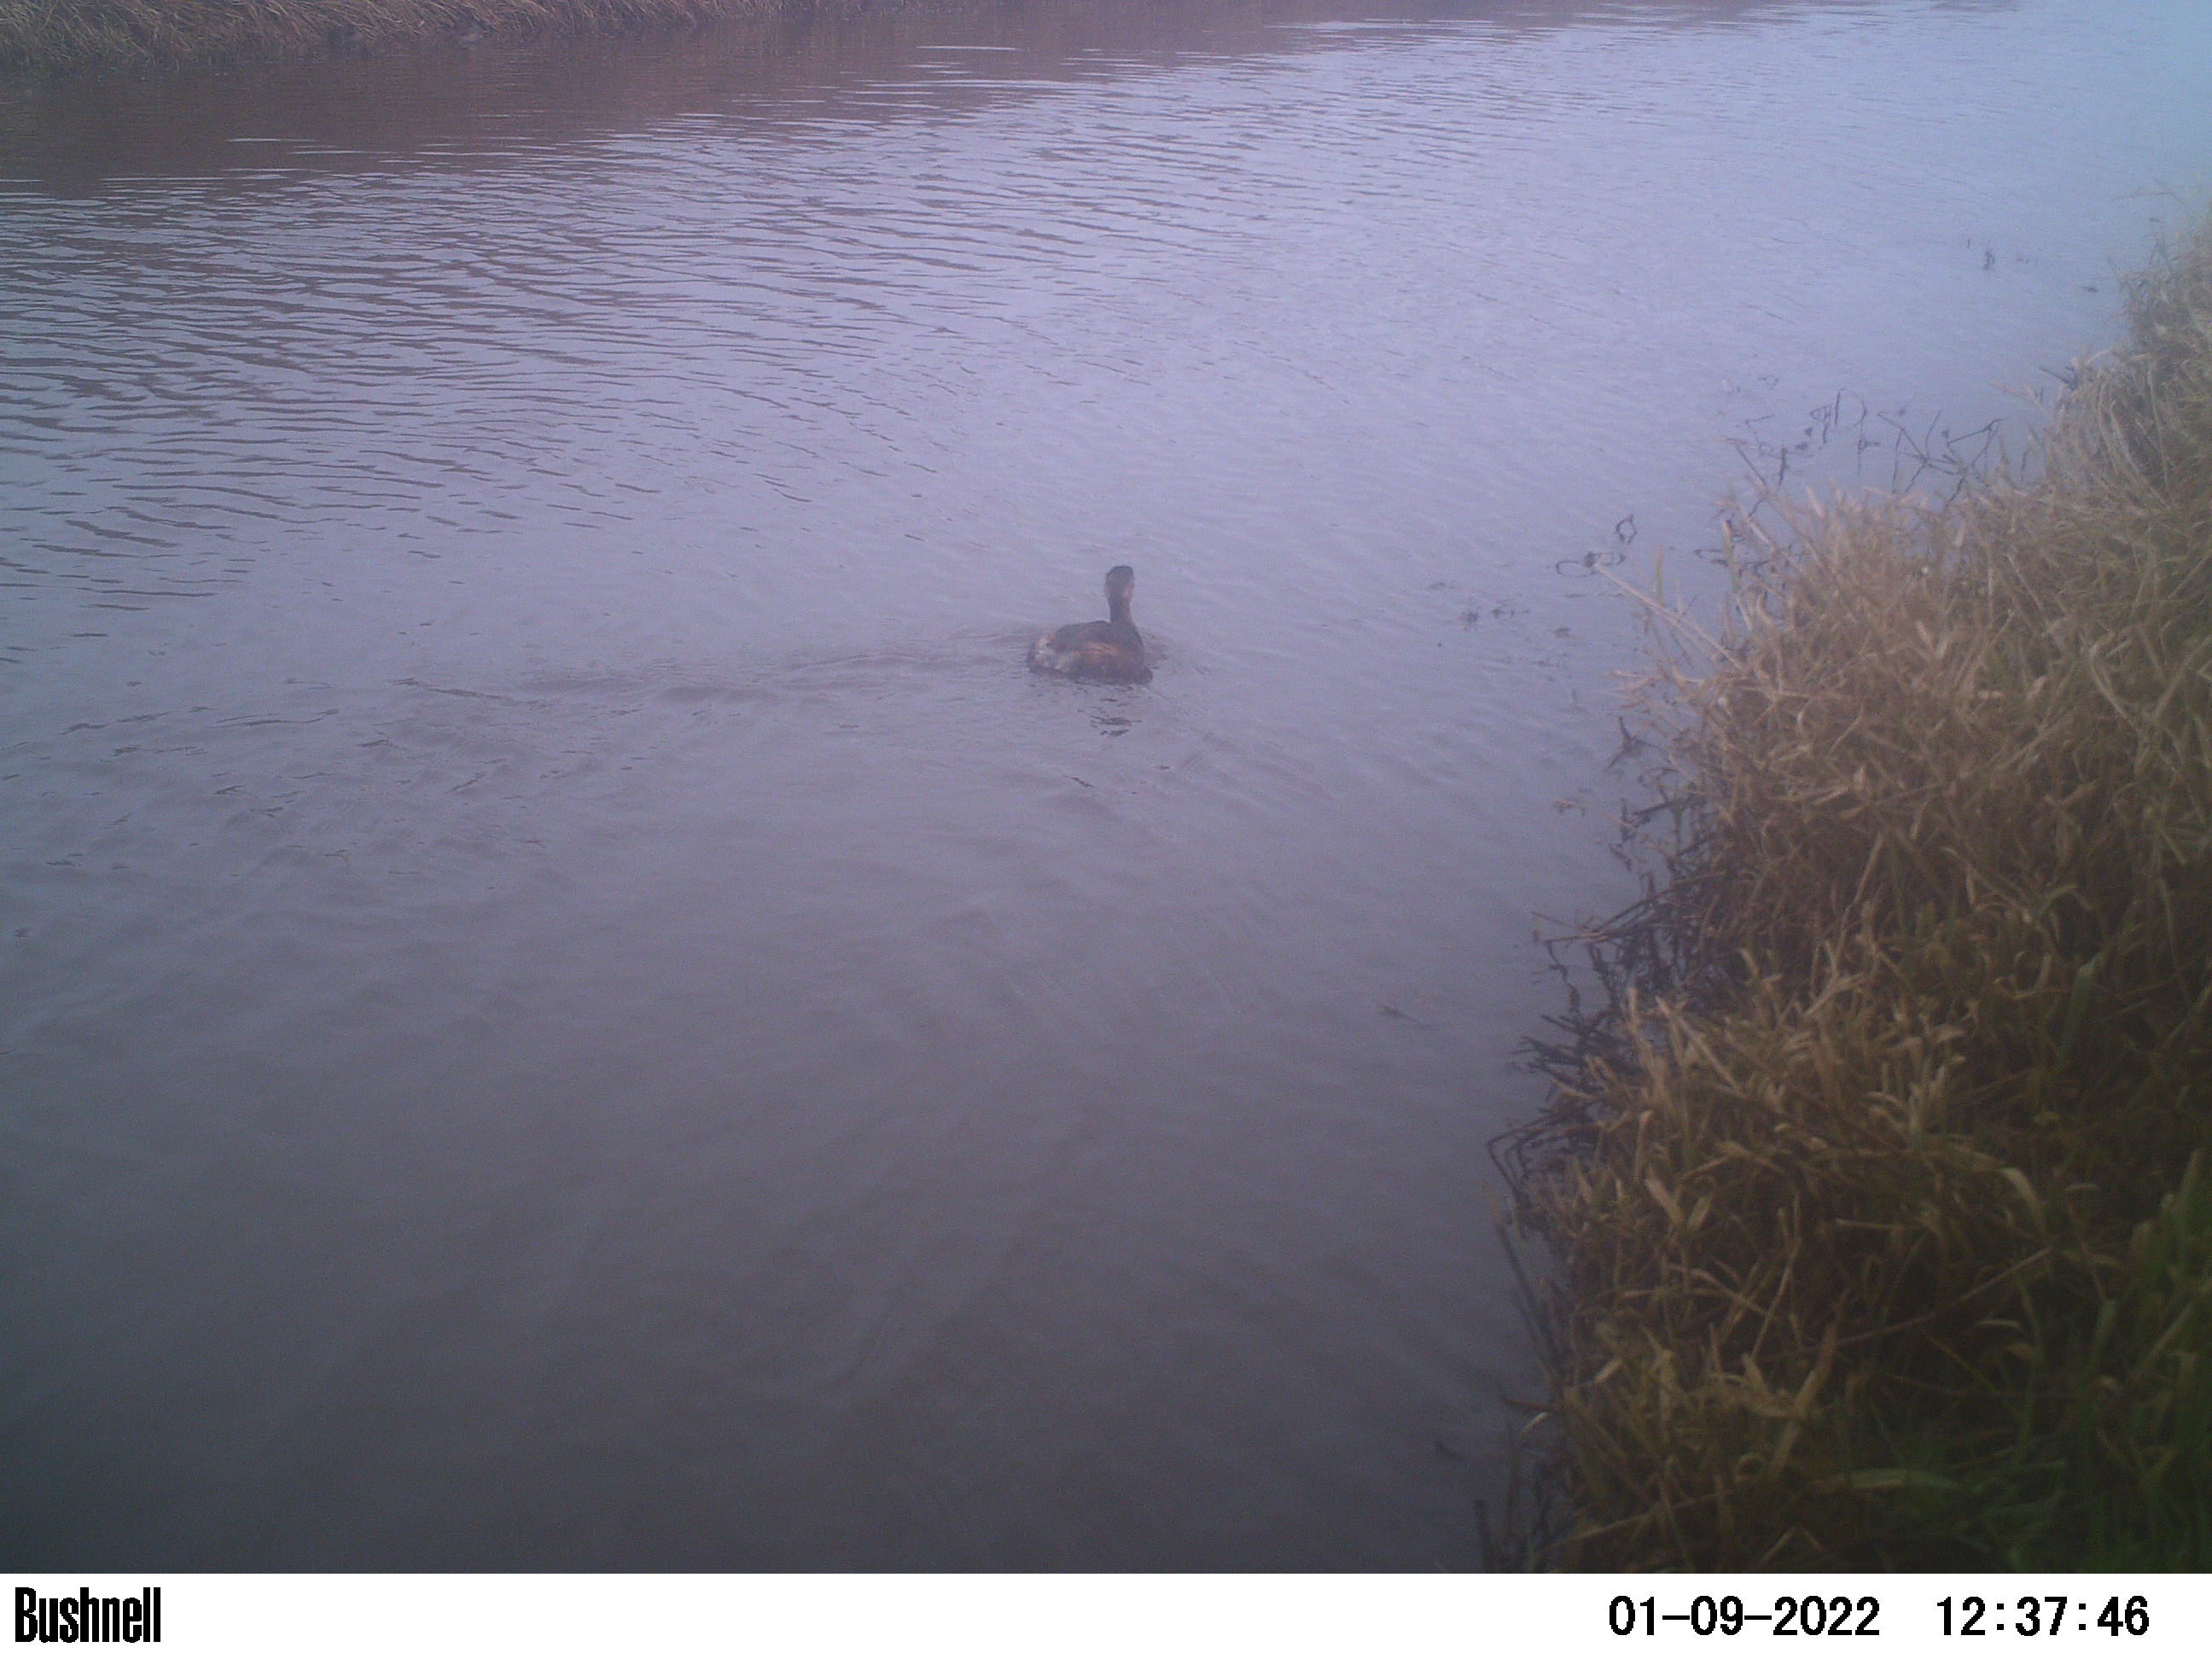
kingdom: Animalia
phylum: Chordata
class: Aves
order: Anseriformes
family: Anatidae
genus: Anas
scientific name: Anas
